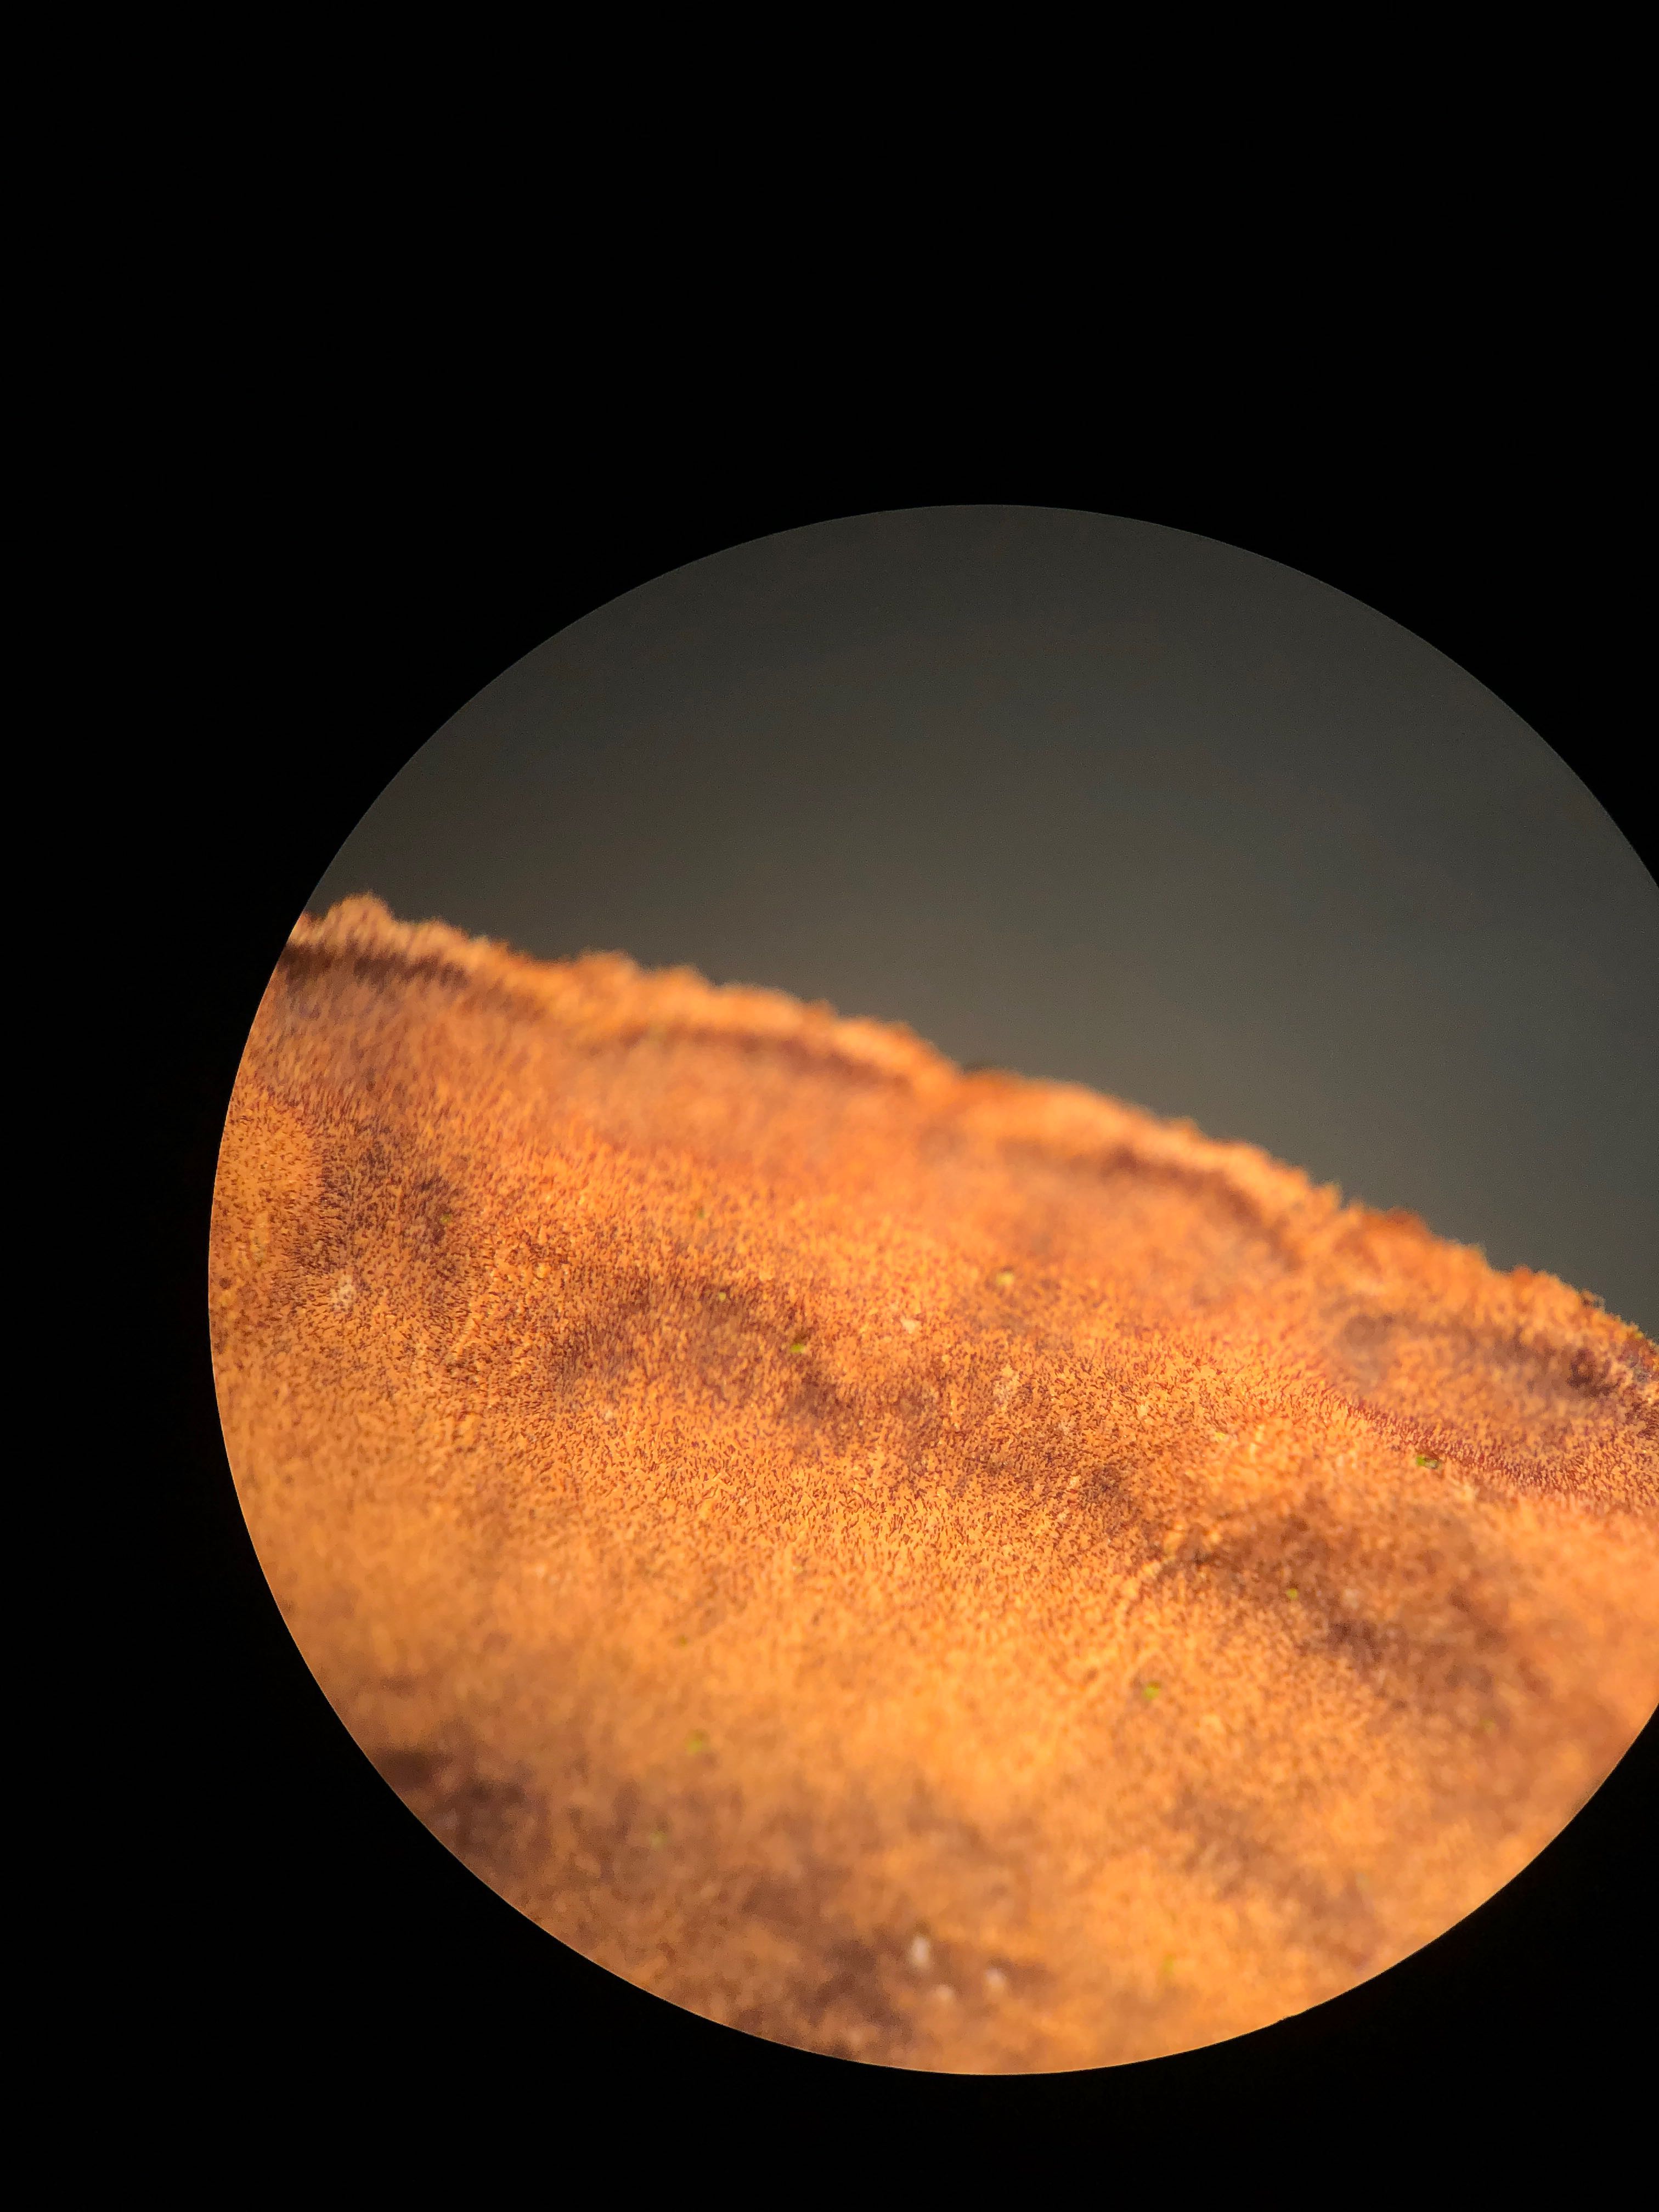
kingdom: Fungi
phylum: Basidiomycota
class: Agaricomycetes
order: Hymenochaetales
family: Hymenochaetaceae
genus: Hydnoporia
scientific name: Hydnoporia tabacina
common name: tobaksbrun ruslædersvamp
